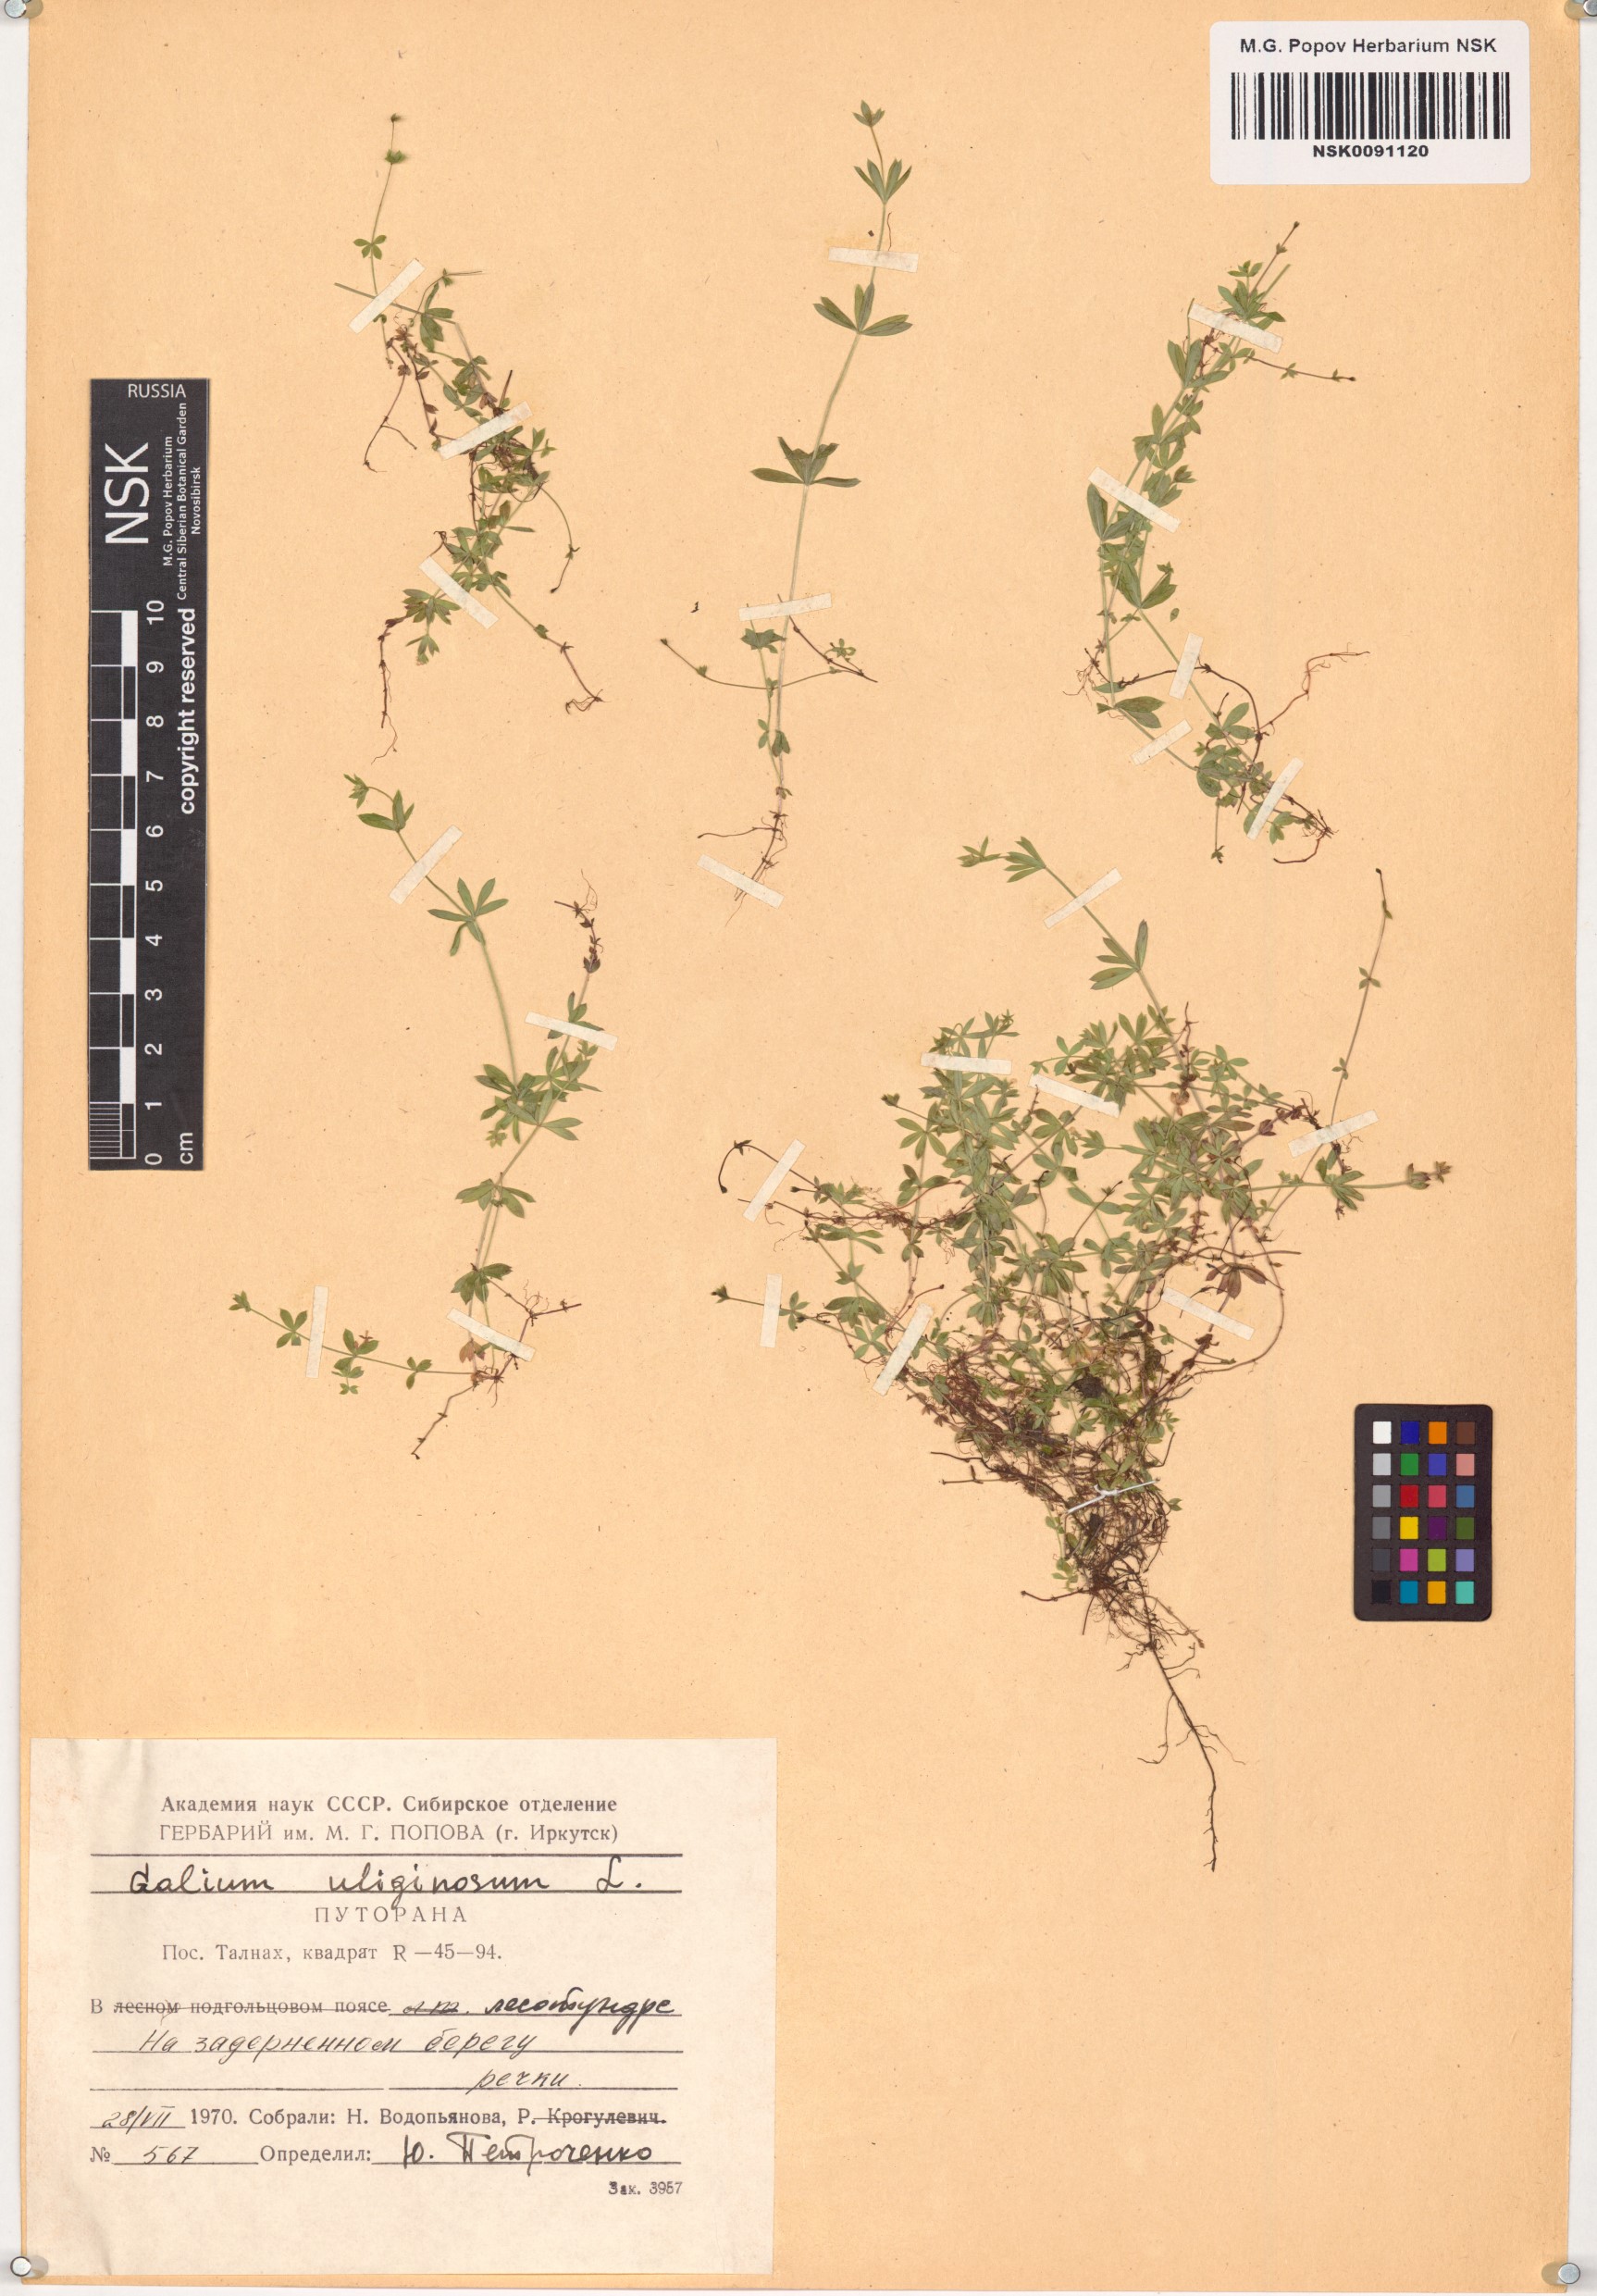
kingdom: Plantae
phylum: Tracheophyta
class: Magnoliopsida
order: Gentianales
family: Rubiaceae
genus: Galium
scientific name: Galium uliginosum
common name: Fen bedstraw
